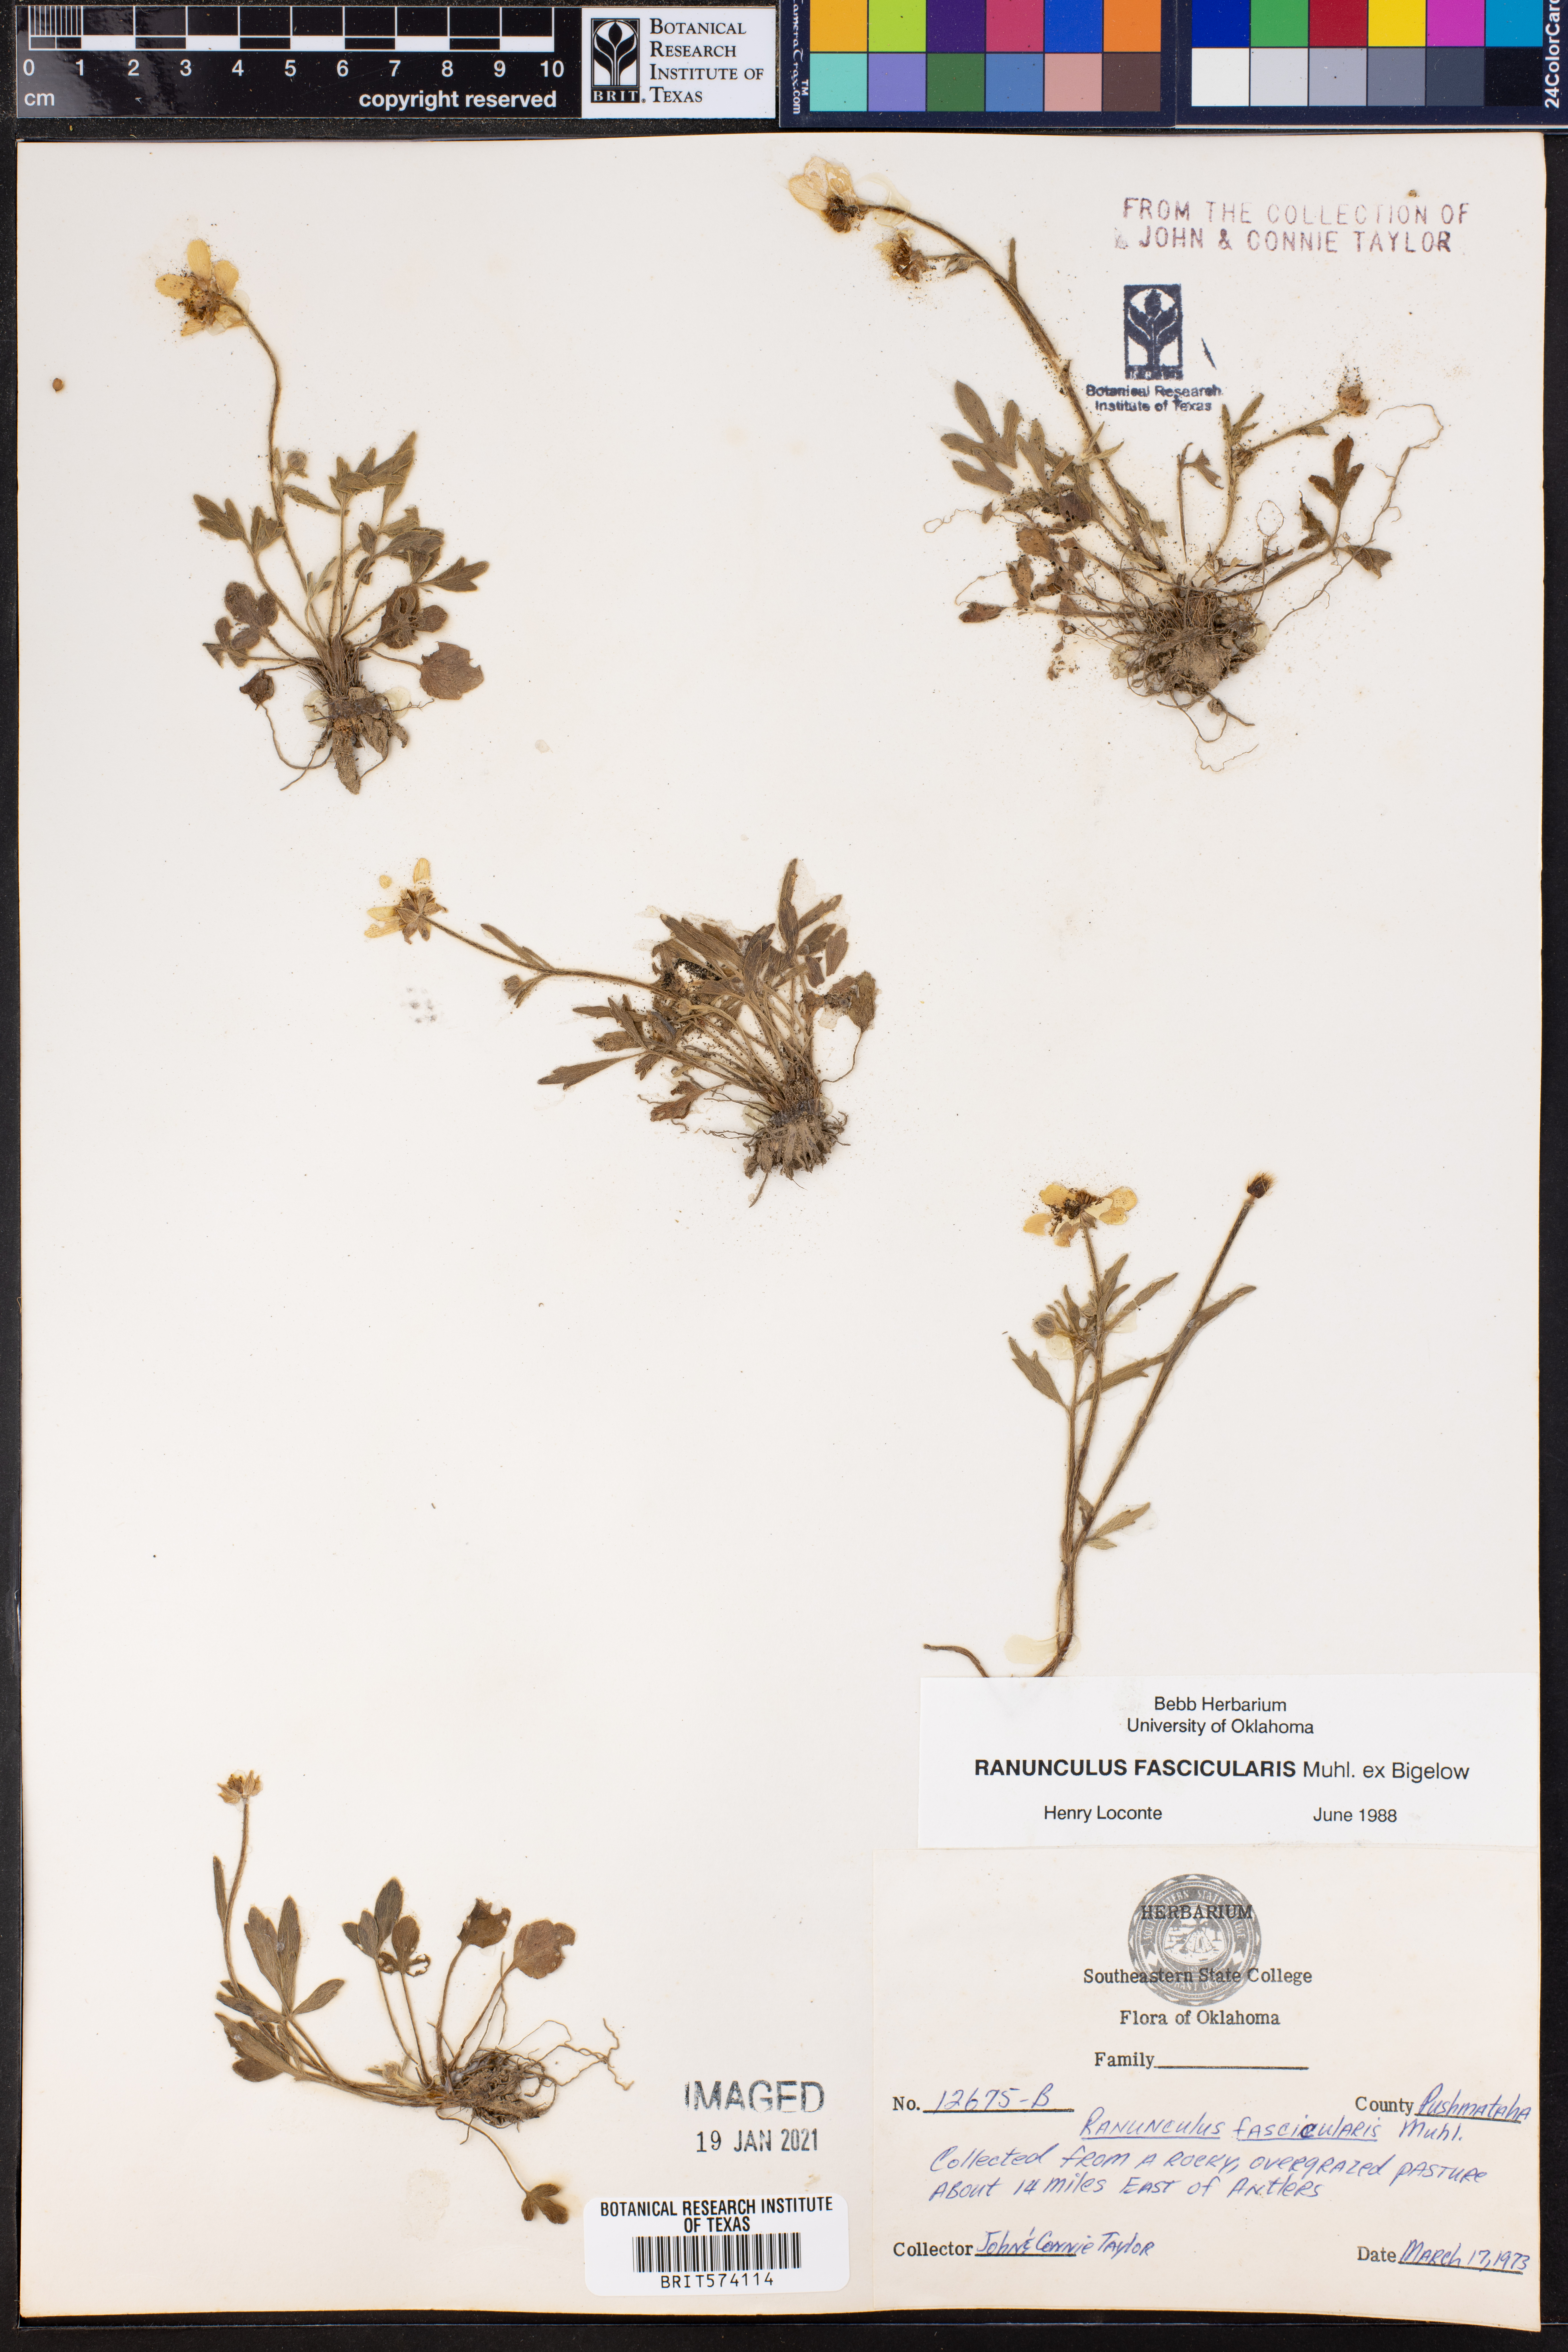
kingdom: Plantae
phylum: Tracheophyta
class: Magnoliopsida
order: Ranunculales
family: Ranunculaceae
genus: Ranunculus
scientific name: Ranunculus fascicularis
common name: Early buttercup
